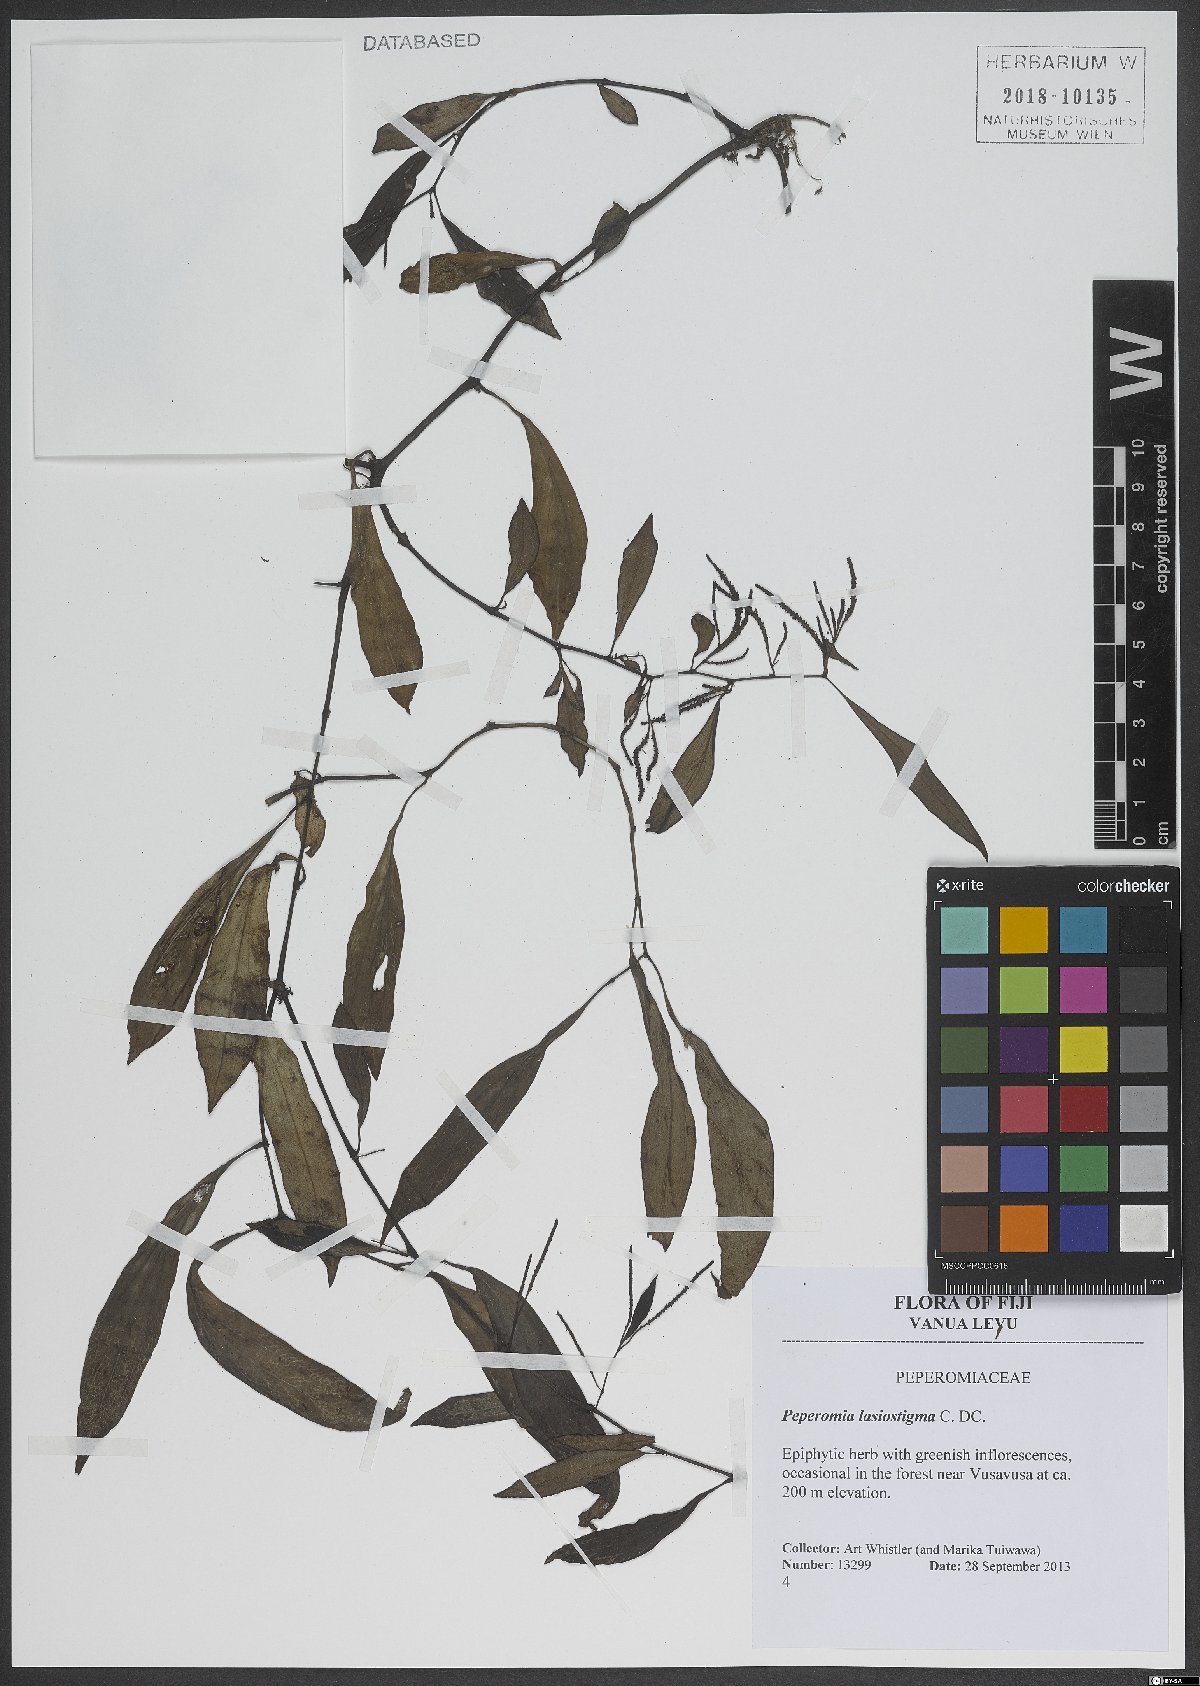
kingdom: Plantae
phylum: Tracheophyta
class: Magnoliopsida
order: Piperales
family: Piperaceae
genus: Peperomia
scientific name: Peperomia lasiostigma
